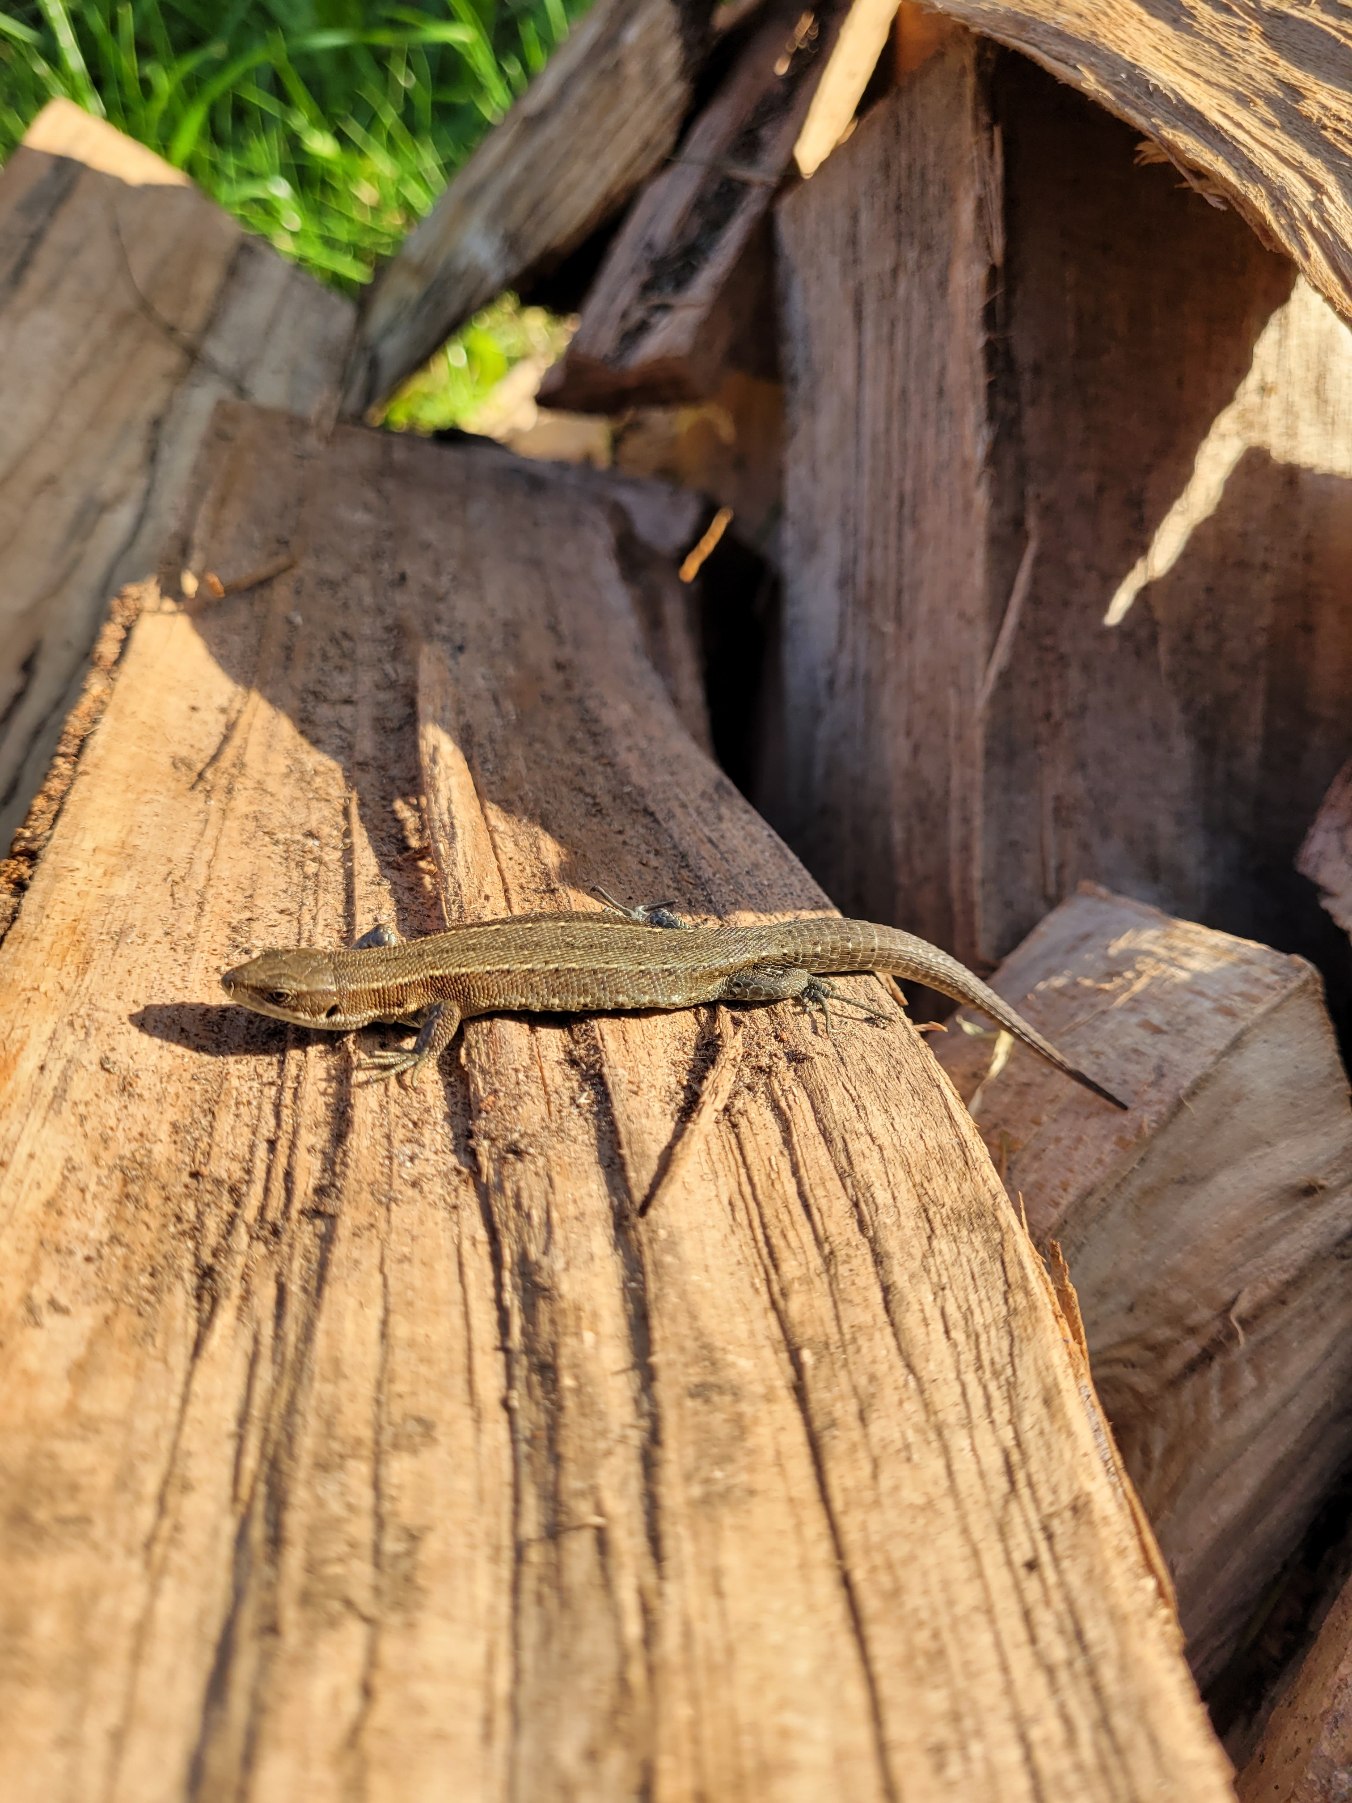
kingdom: Animalia
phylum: Chordata
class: Squamata
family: Lacertidae
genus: Zootoca
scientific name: Zootoca vivipara
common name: Skovfirben
